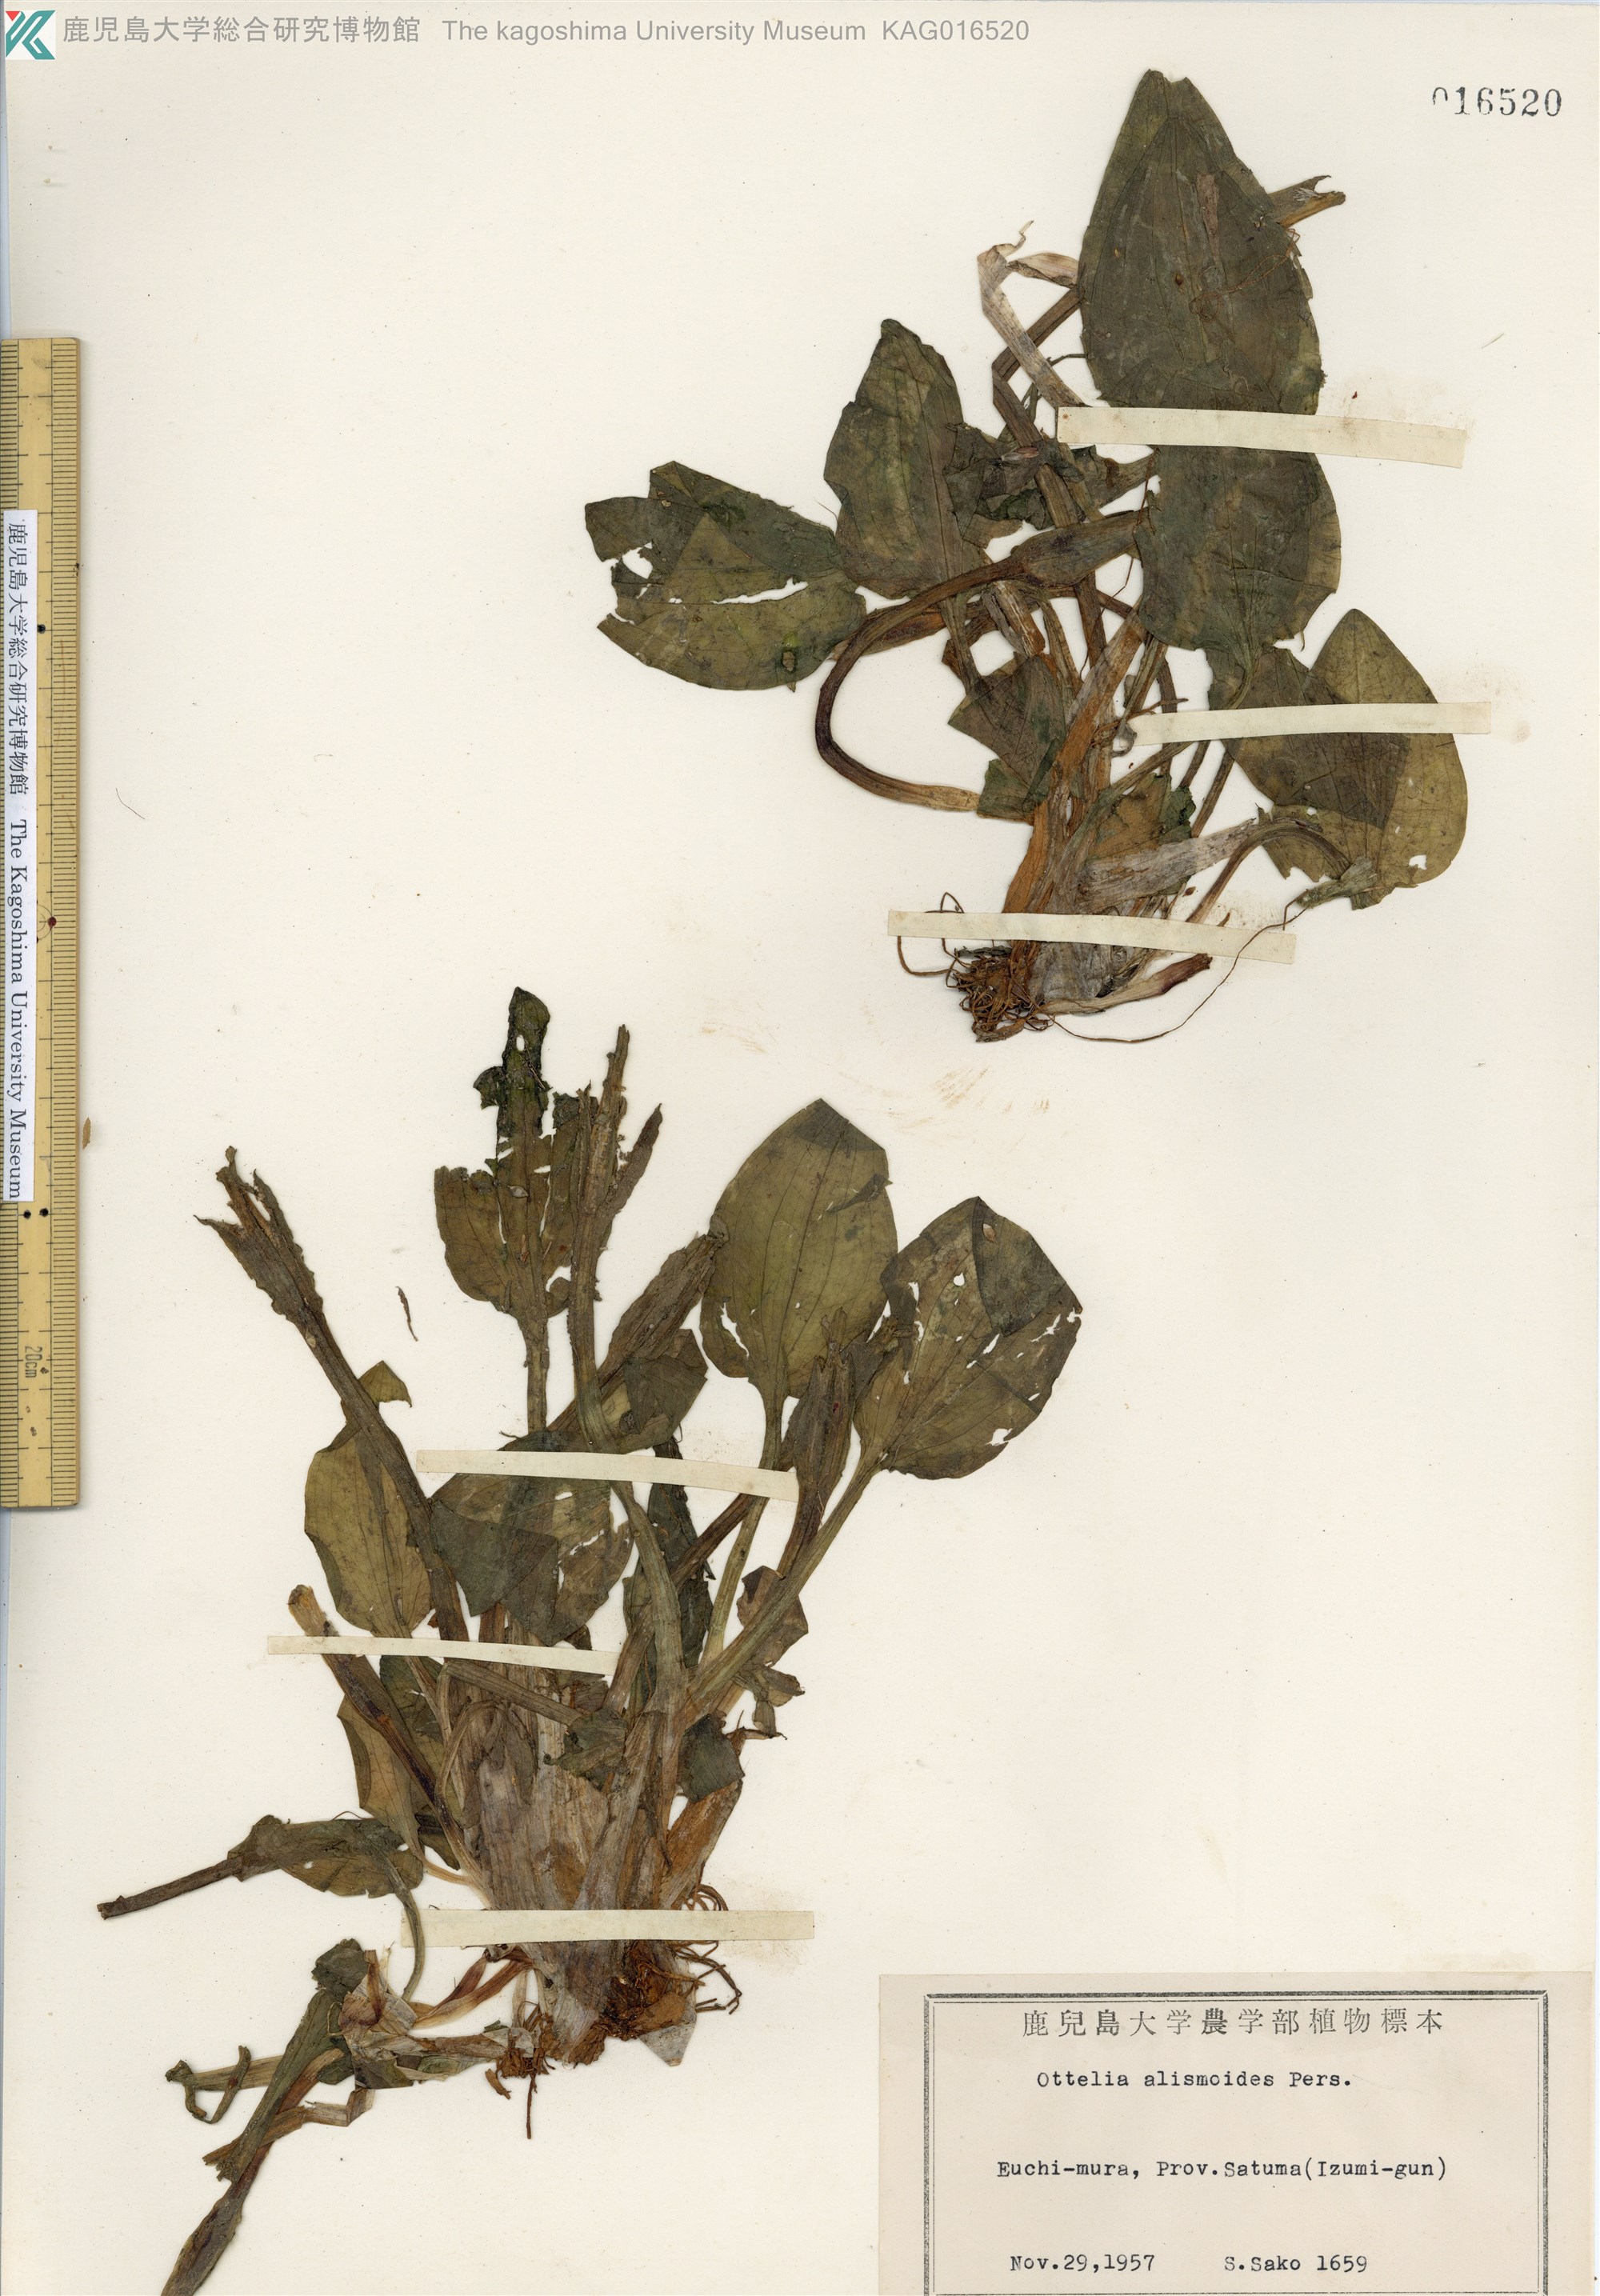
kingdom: Plantae
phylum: Tracheophyta
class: Liliopsida
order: Alismatales
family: Hydrocharitaceae
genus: Ottelia
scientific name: Ottelia alismoides
